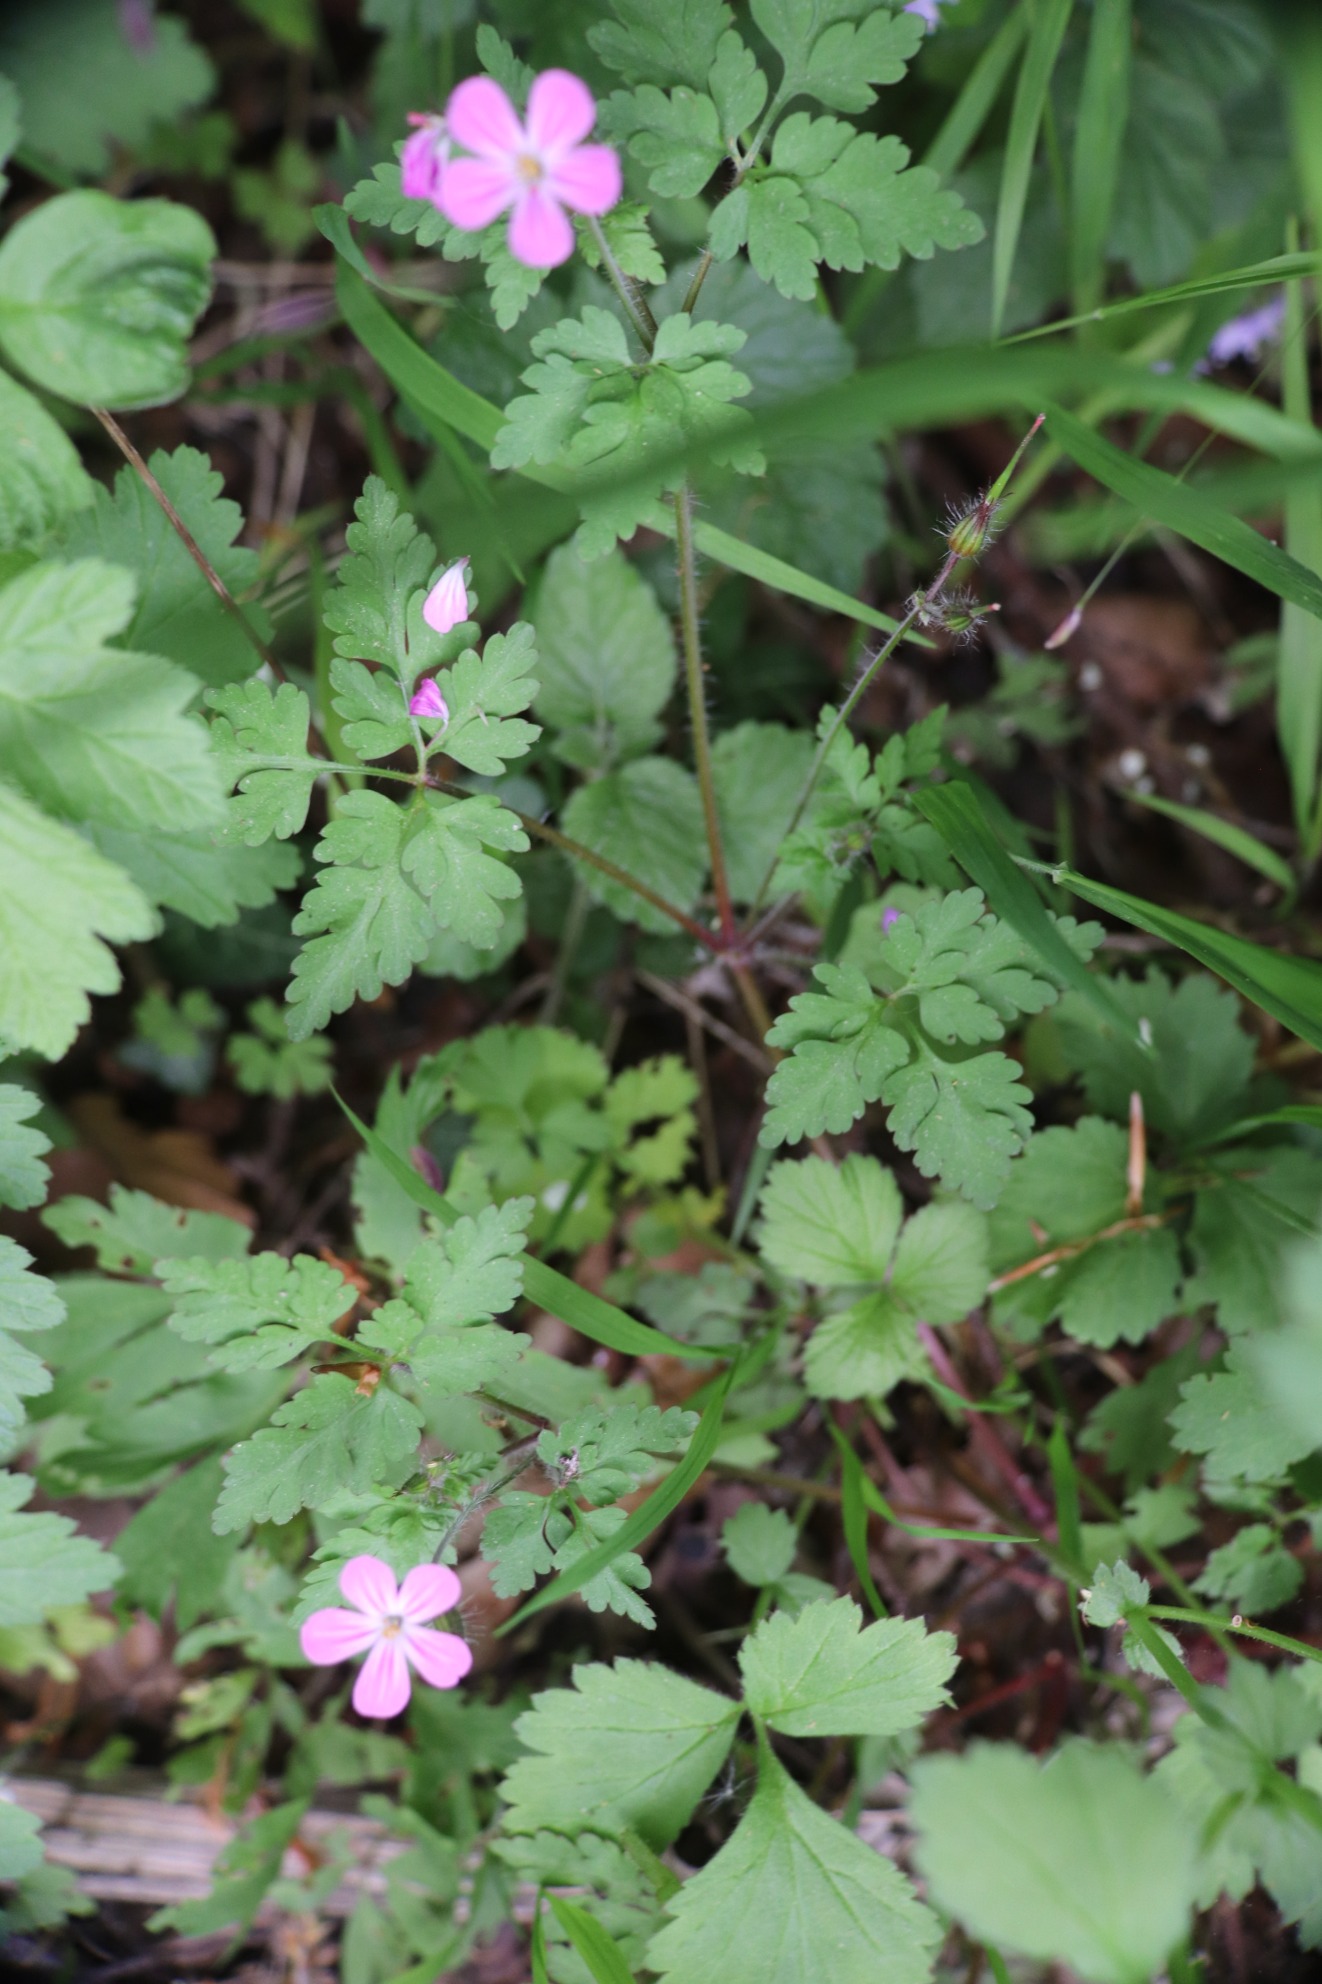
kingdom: Plantae
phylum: Tracheophyta
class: Magnoliopsida
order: Geraniales
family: Geraniaceae
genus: Geranium
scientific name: Geranium robertianum
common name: Stinkende storkenæb
